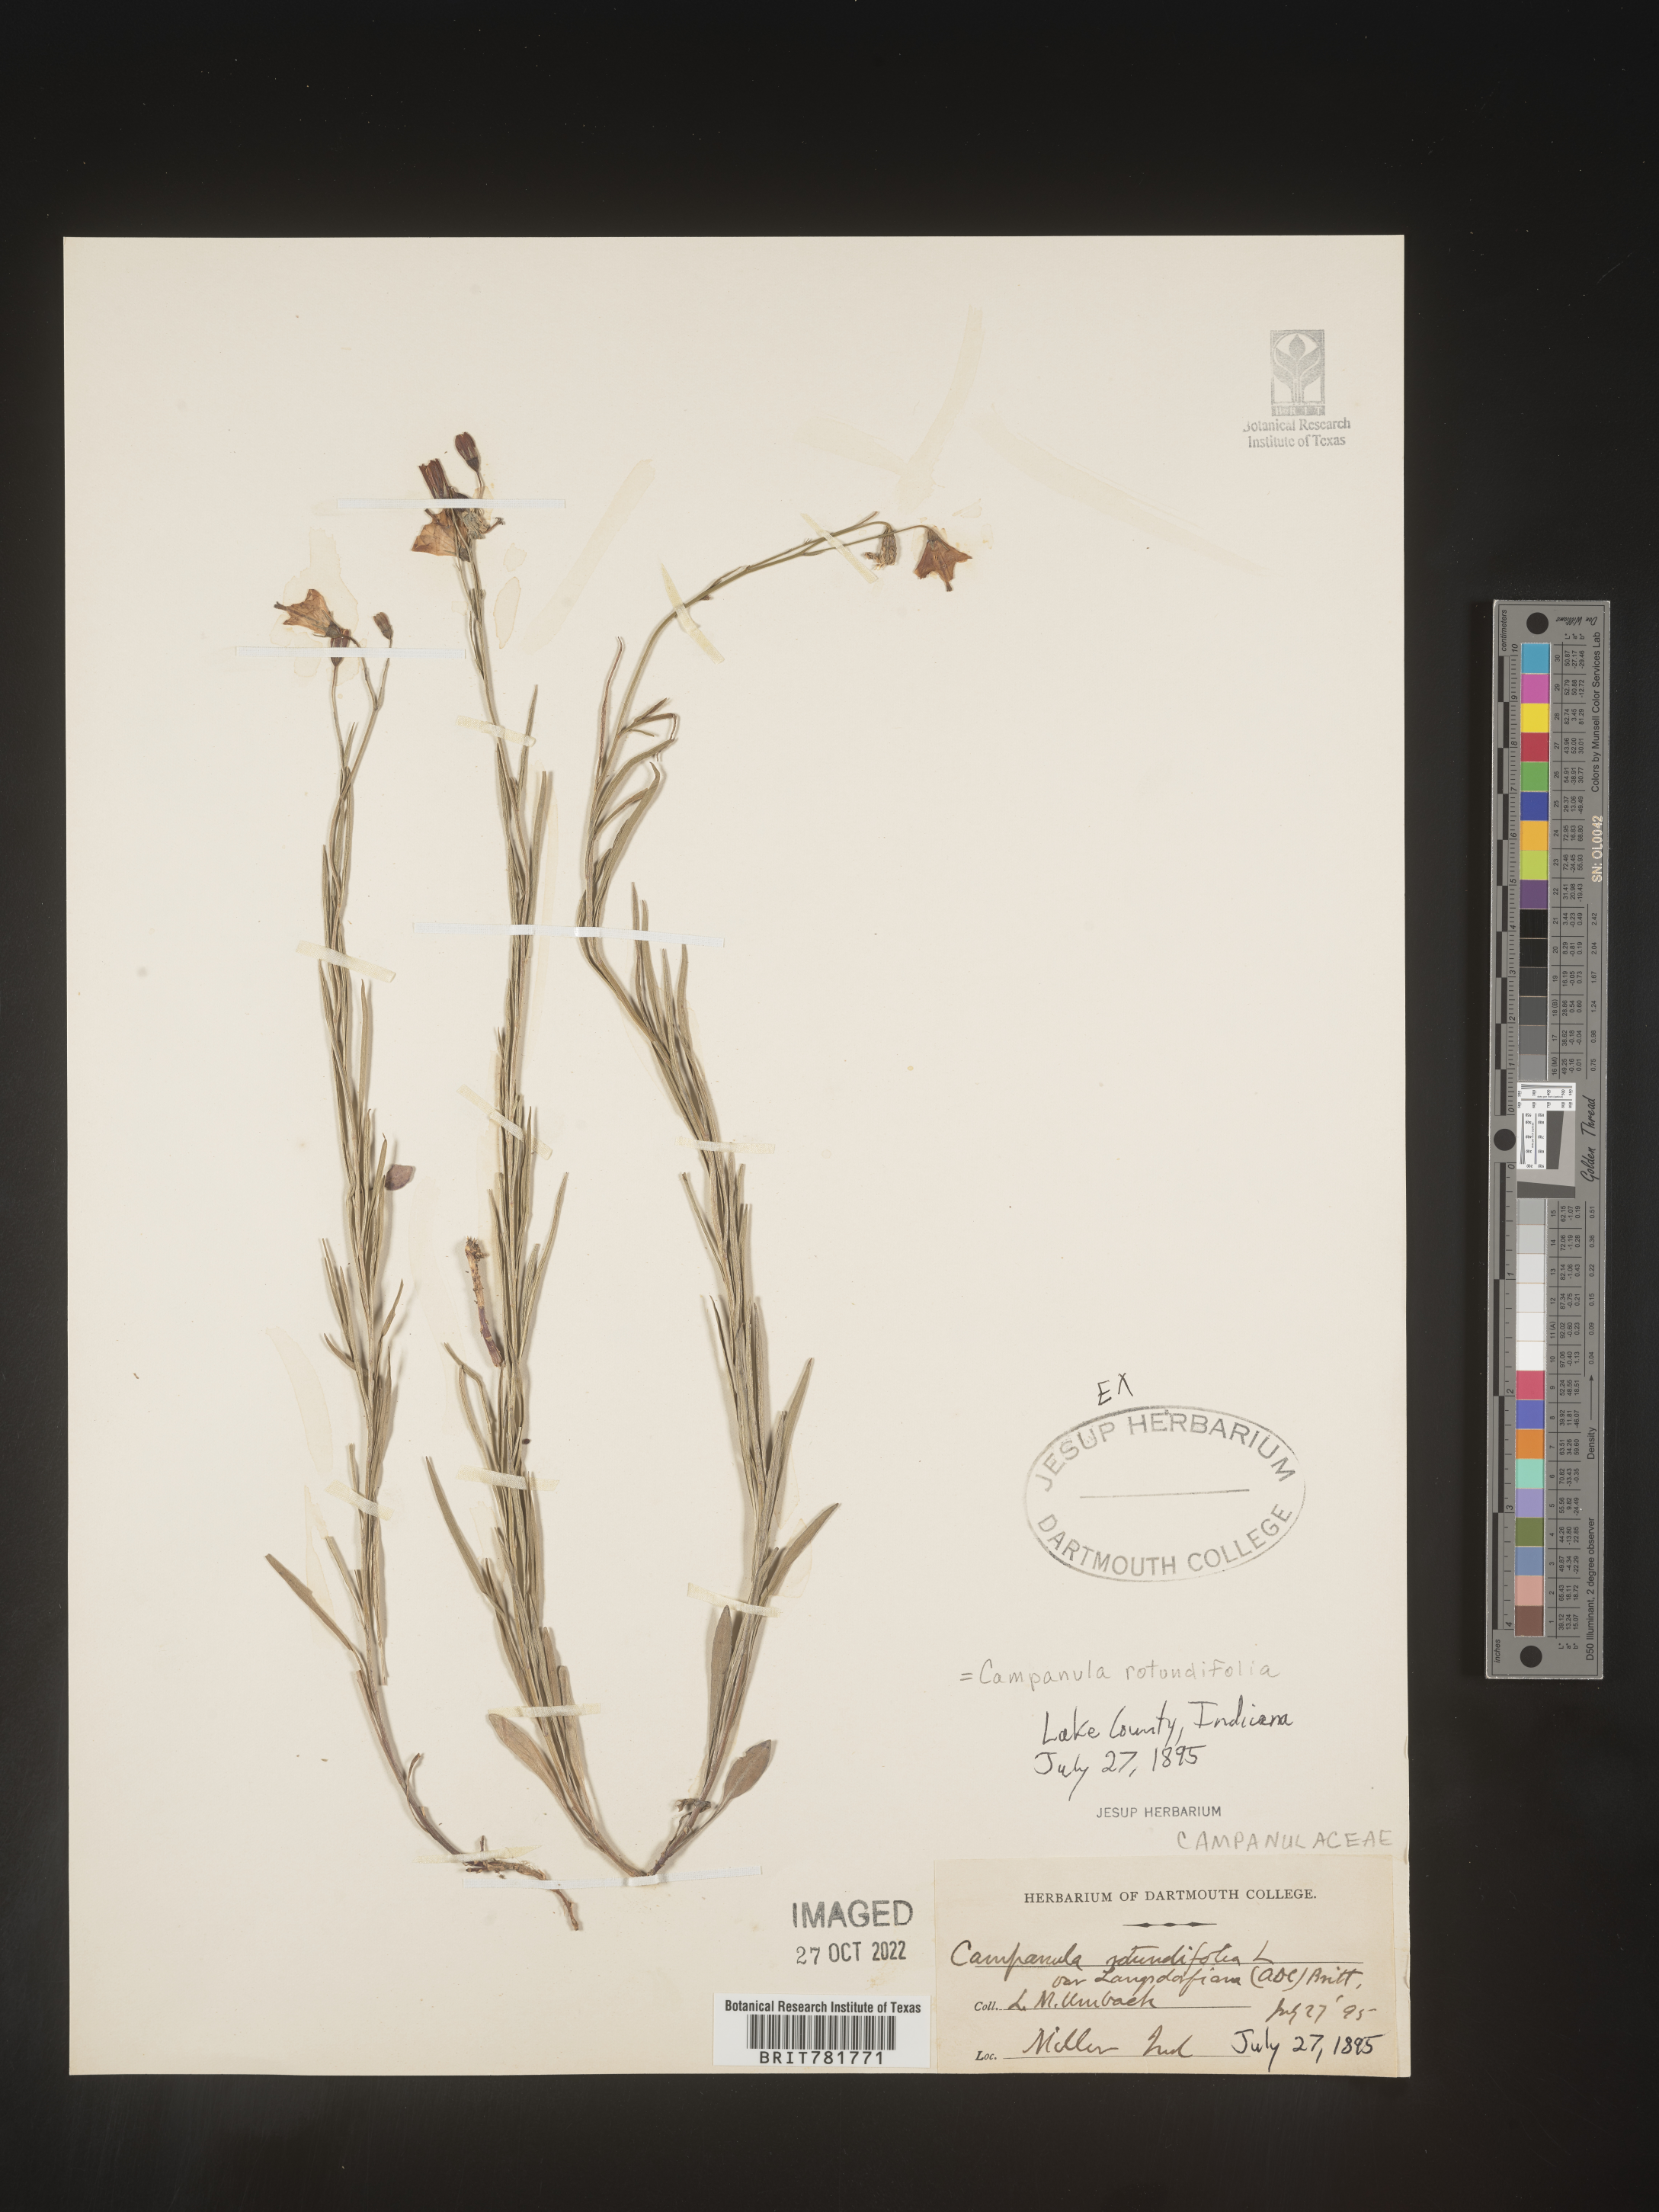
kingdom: Plantae
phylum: Tracheophyta
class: Magnoliopsida
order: Asterales
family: Campanulaceae
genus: Campanula
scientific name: Campanula rotundifolia
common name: Harebell
